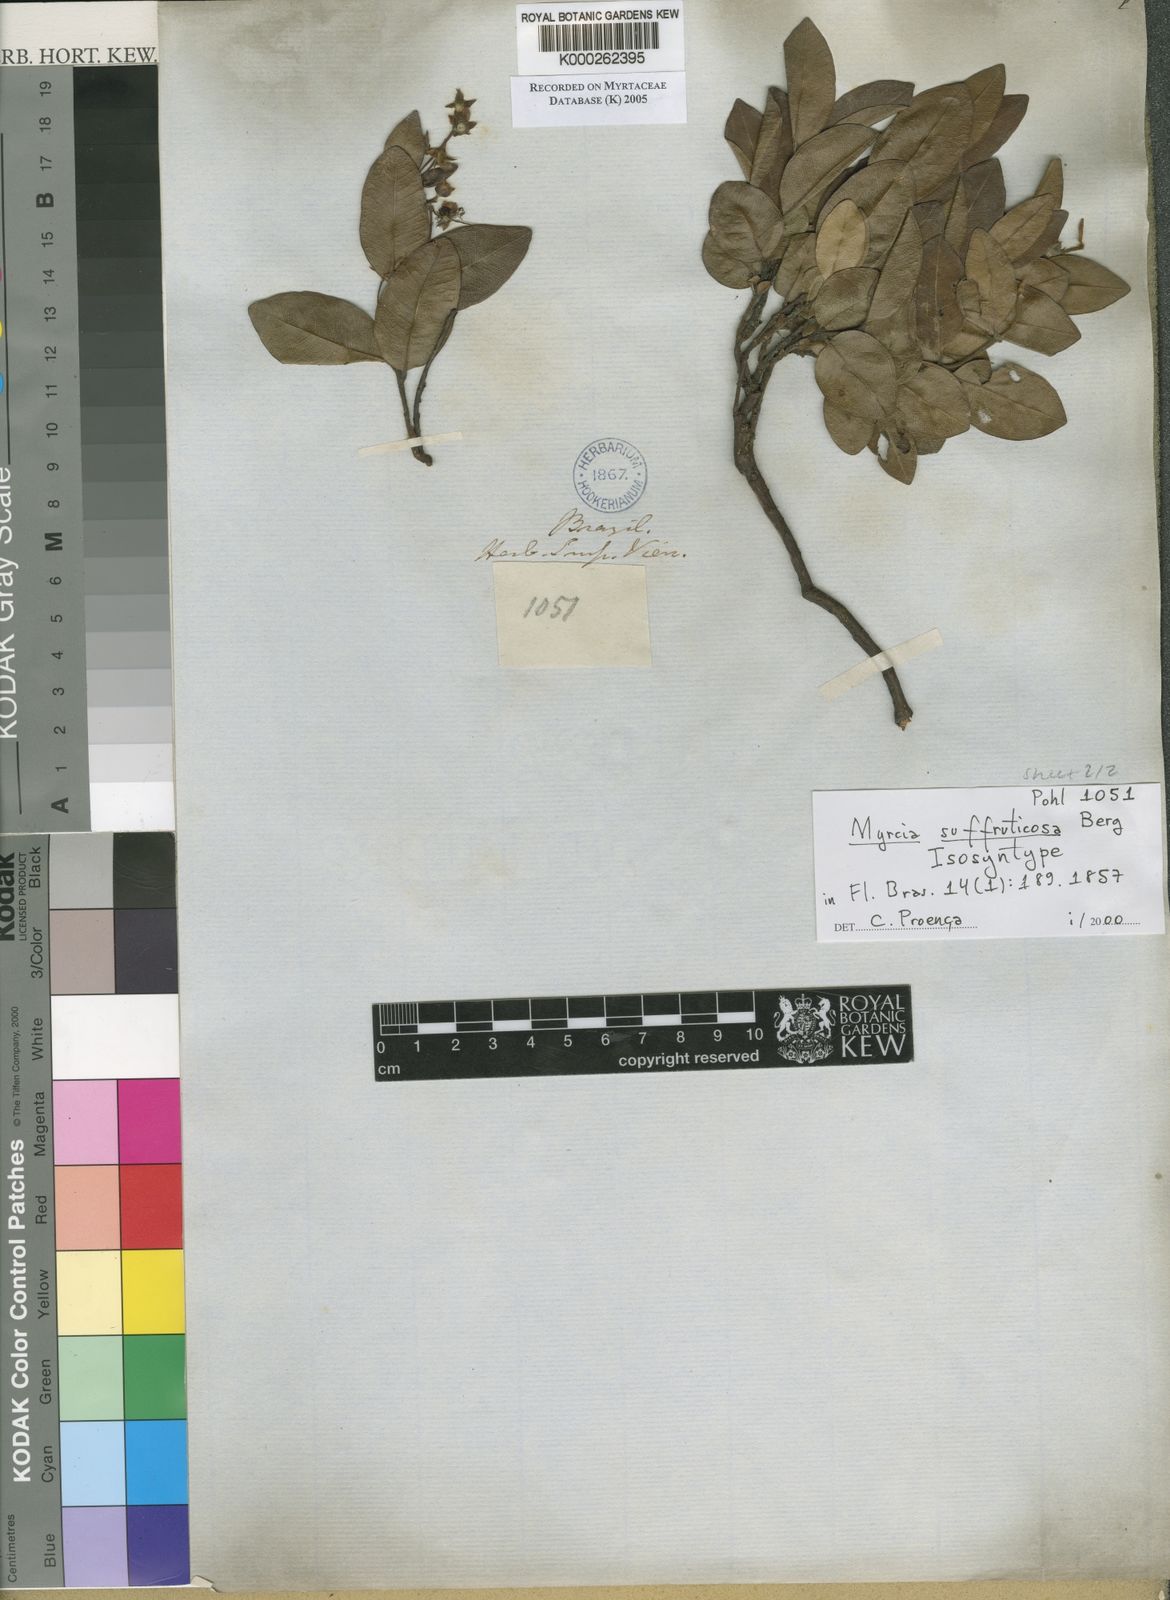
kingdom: Plantae
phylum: Tracheophyta
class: Magnoliopsida
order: Myrtales
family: Myrtaceae
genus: Myrcia
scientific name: Myrcia suffruticosa
